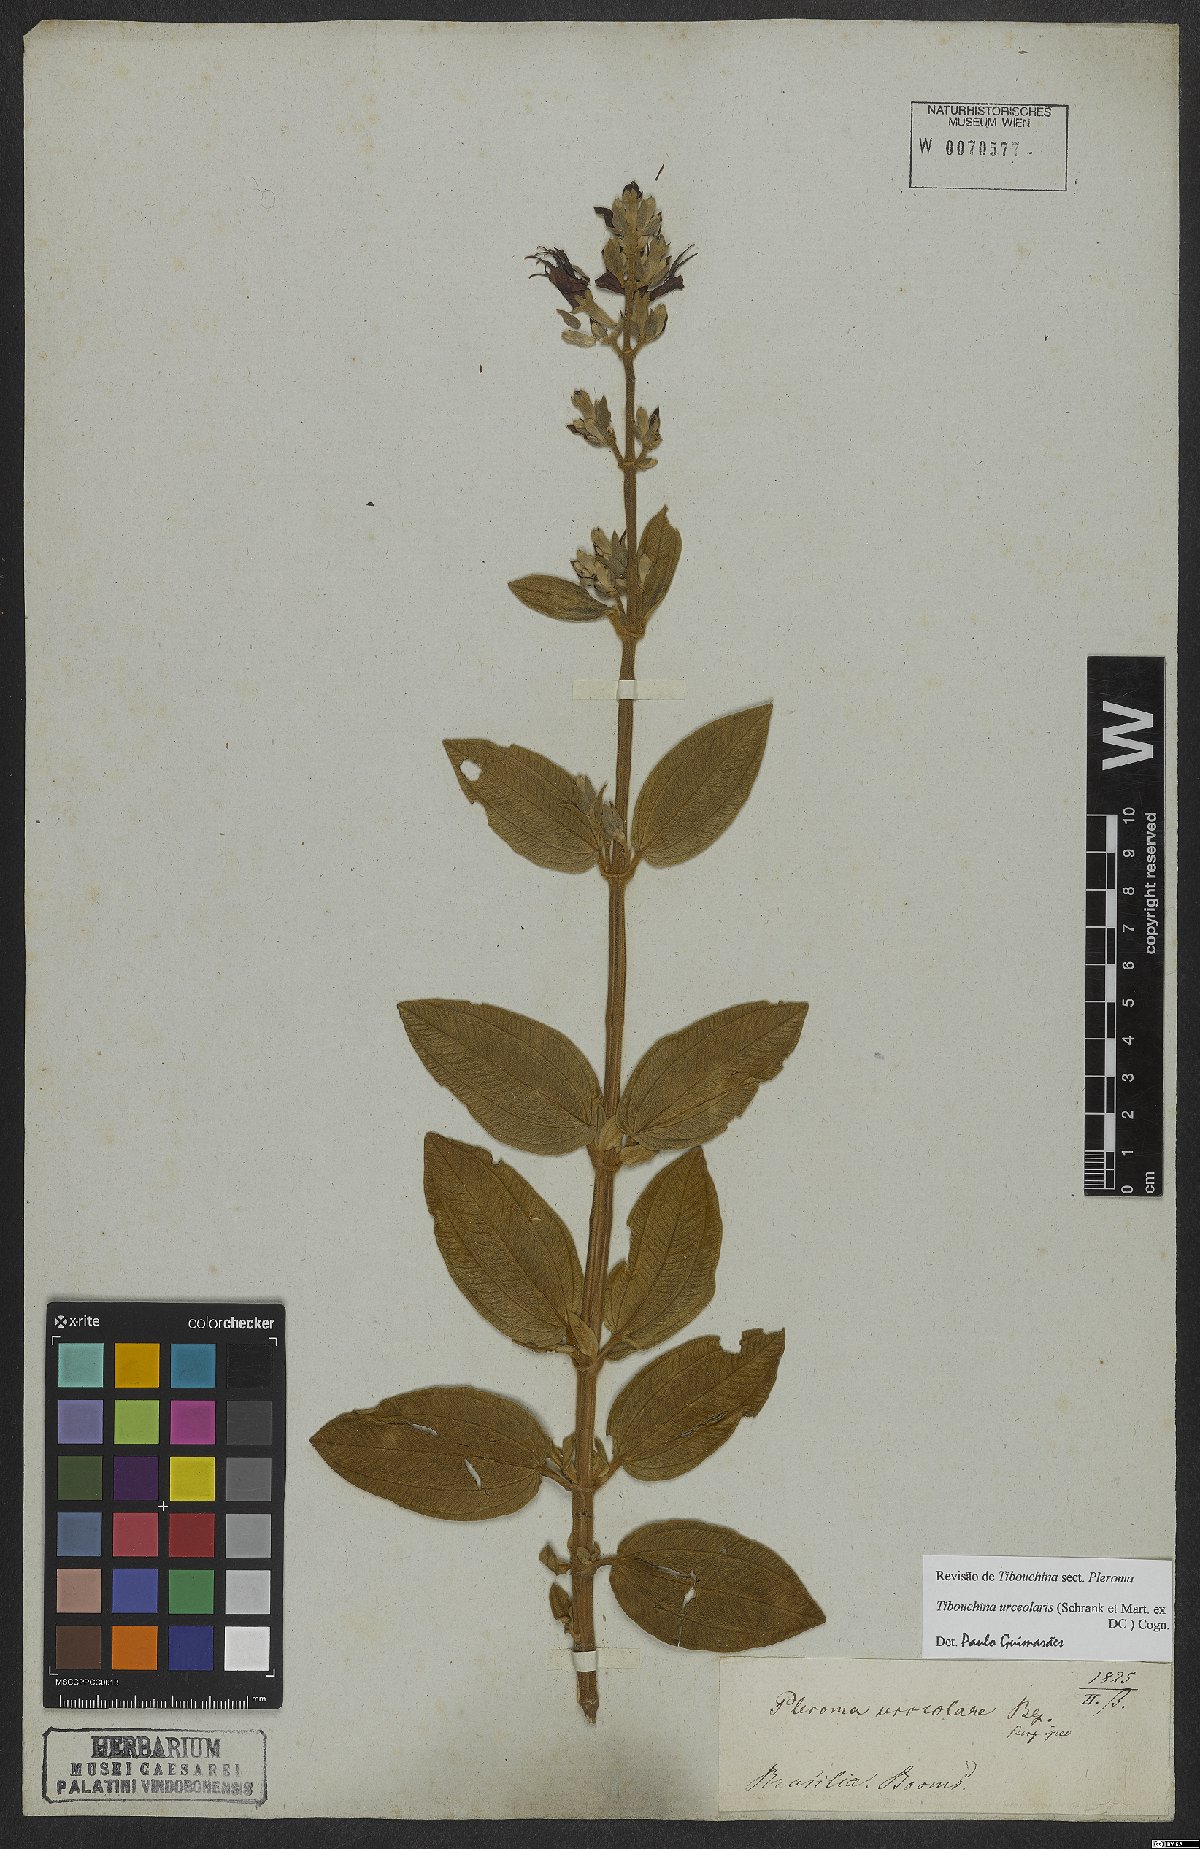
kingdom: Plantae
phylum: Tracheophyta
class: Magnoliopsida
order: Myrtales
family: Melastomataceae
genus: Pleroma
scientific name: Pleroma urceolare
